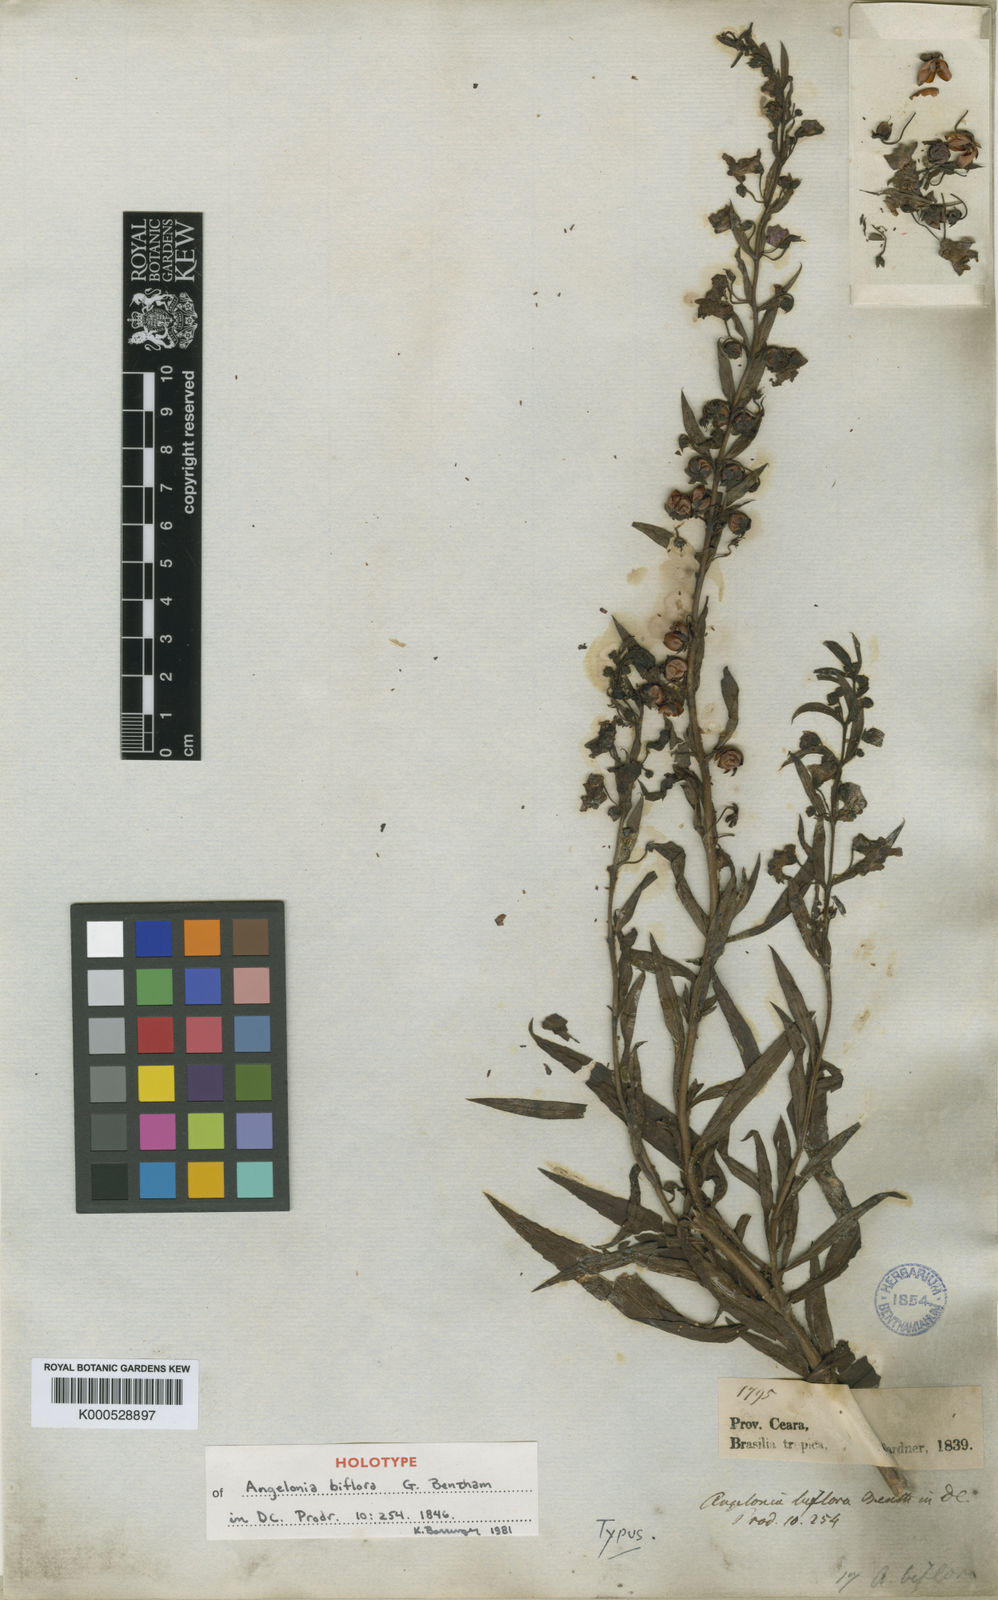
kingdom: Plantae
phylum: Tracheophyta
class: Magnoliopsida
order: Lamiales
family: Plantaginaceae
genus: Angelonia
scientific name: Angelonia biflora
